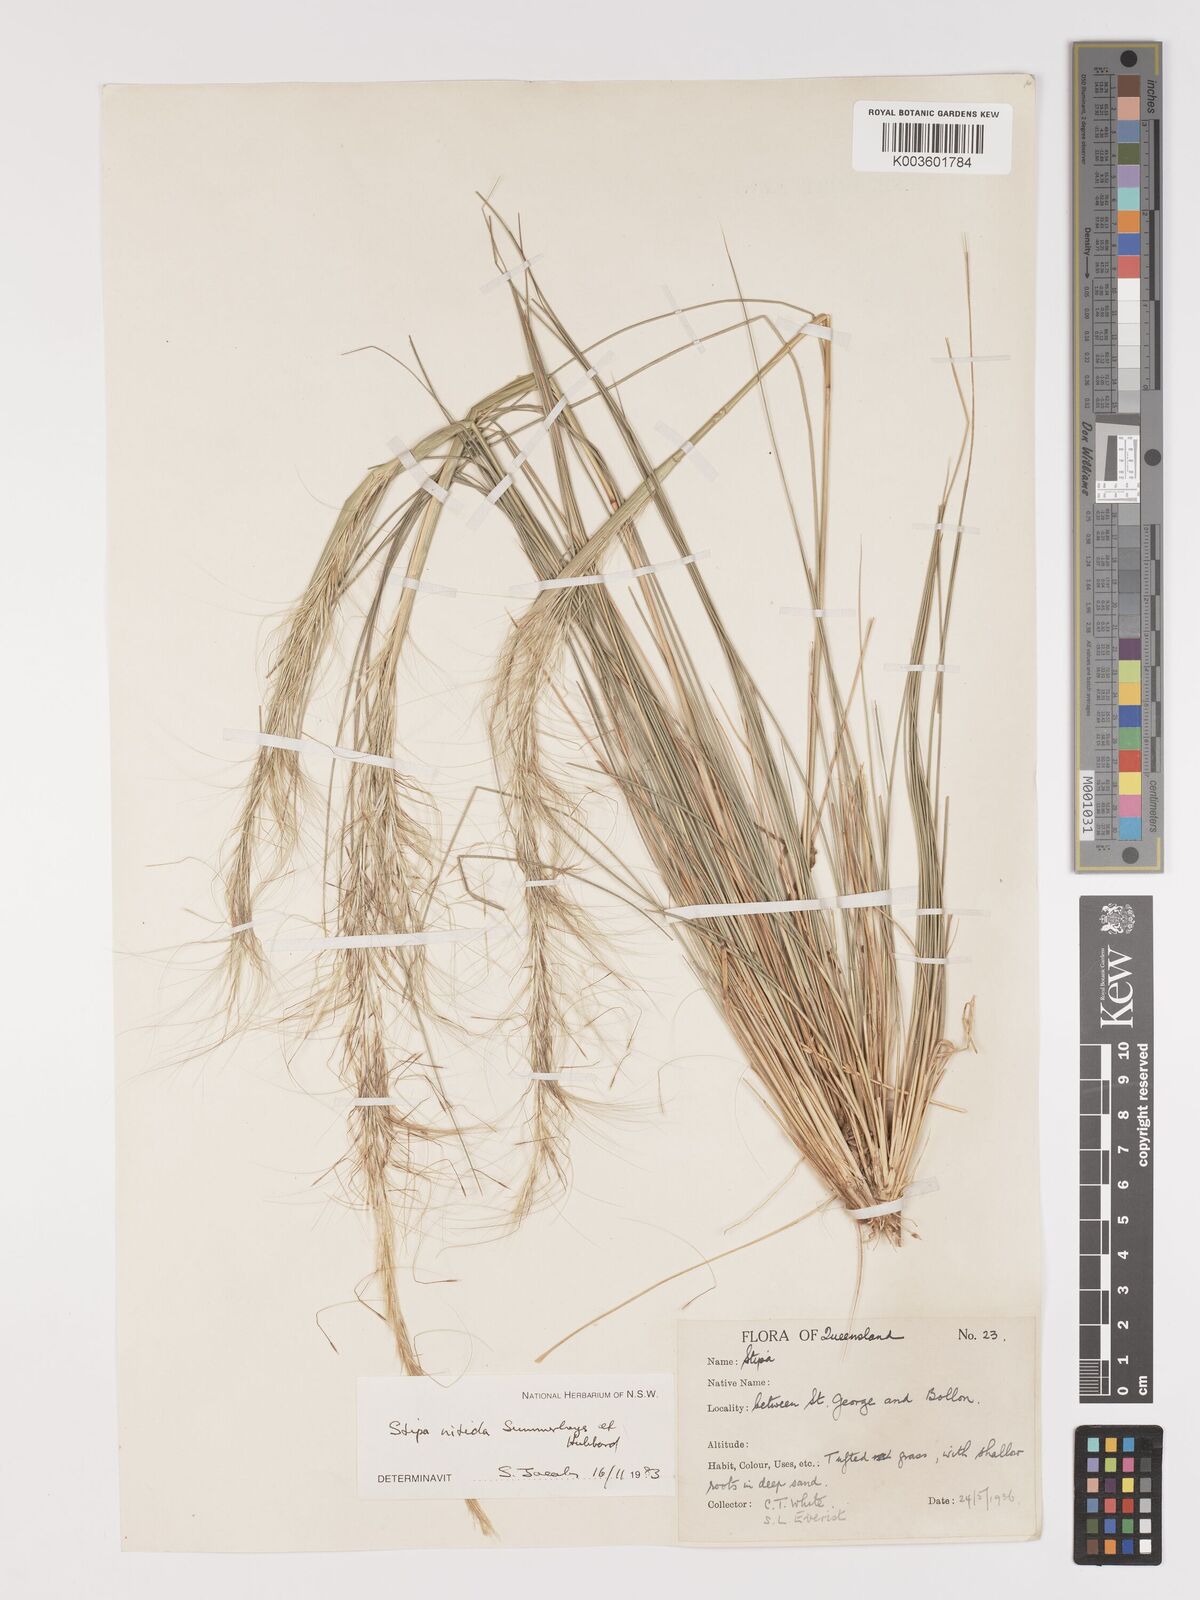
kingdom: Plantae
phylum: Tracheophyta
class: Liliopsida
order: Poales
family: Poaceae
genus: Austrostipa
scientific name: Austrostipa nitida
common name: Balcarra grass
